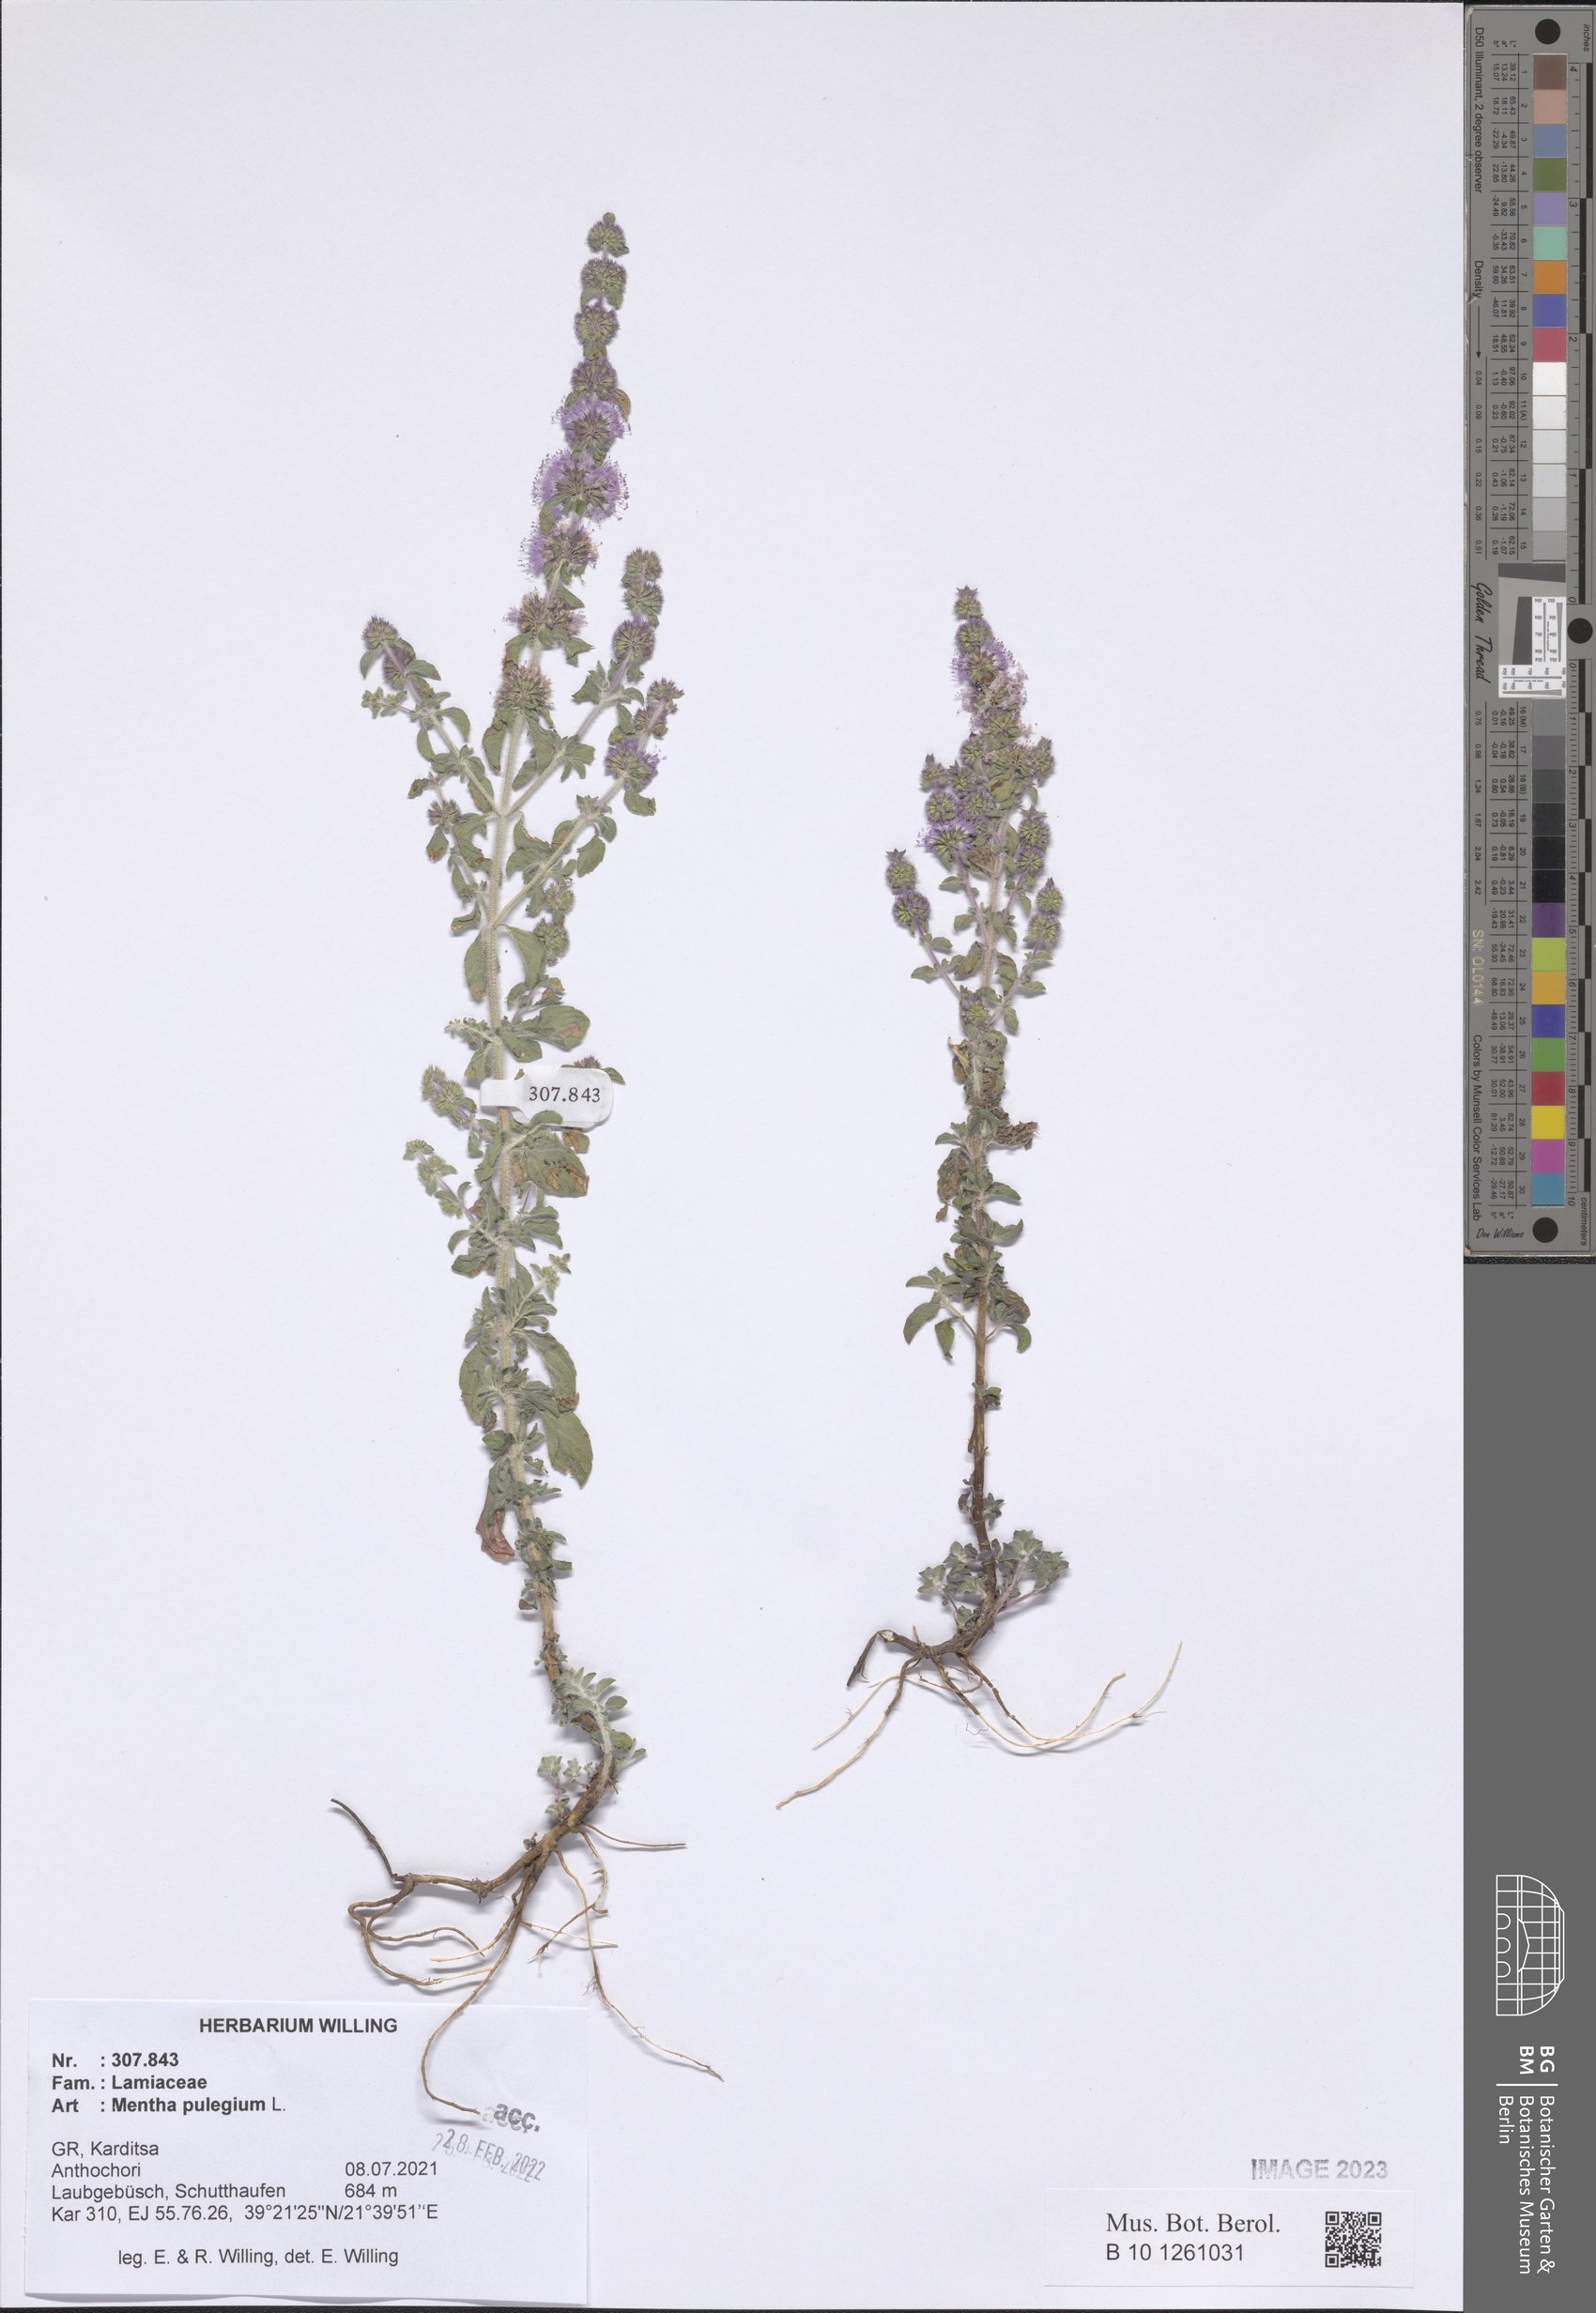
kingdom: Plantae
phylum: Tracheophyta
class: Magnoliopsida
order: Lamiales
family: Lamiaceae
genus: Mentha
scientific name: Mentha pulegium
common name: Pennyroyal
